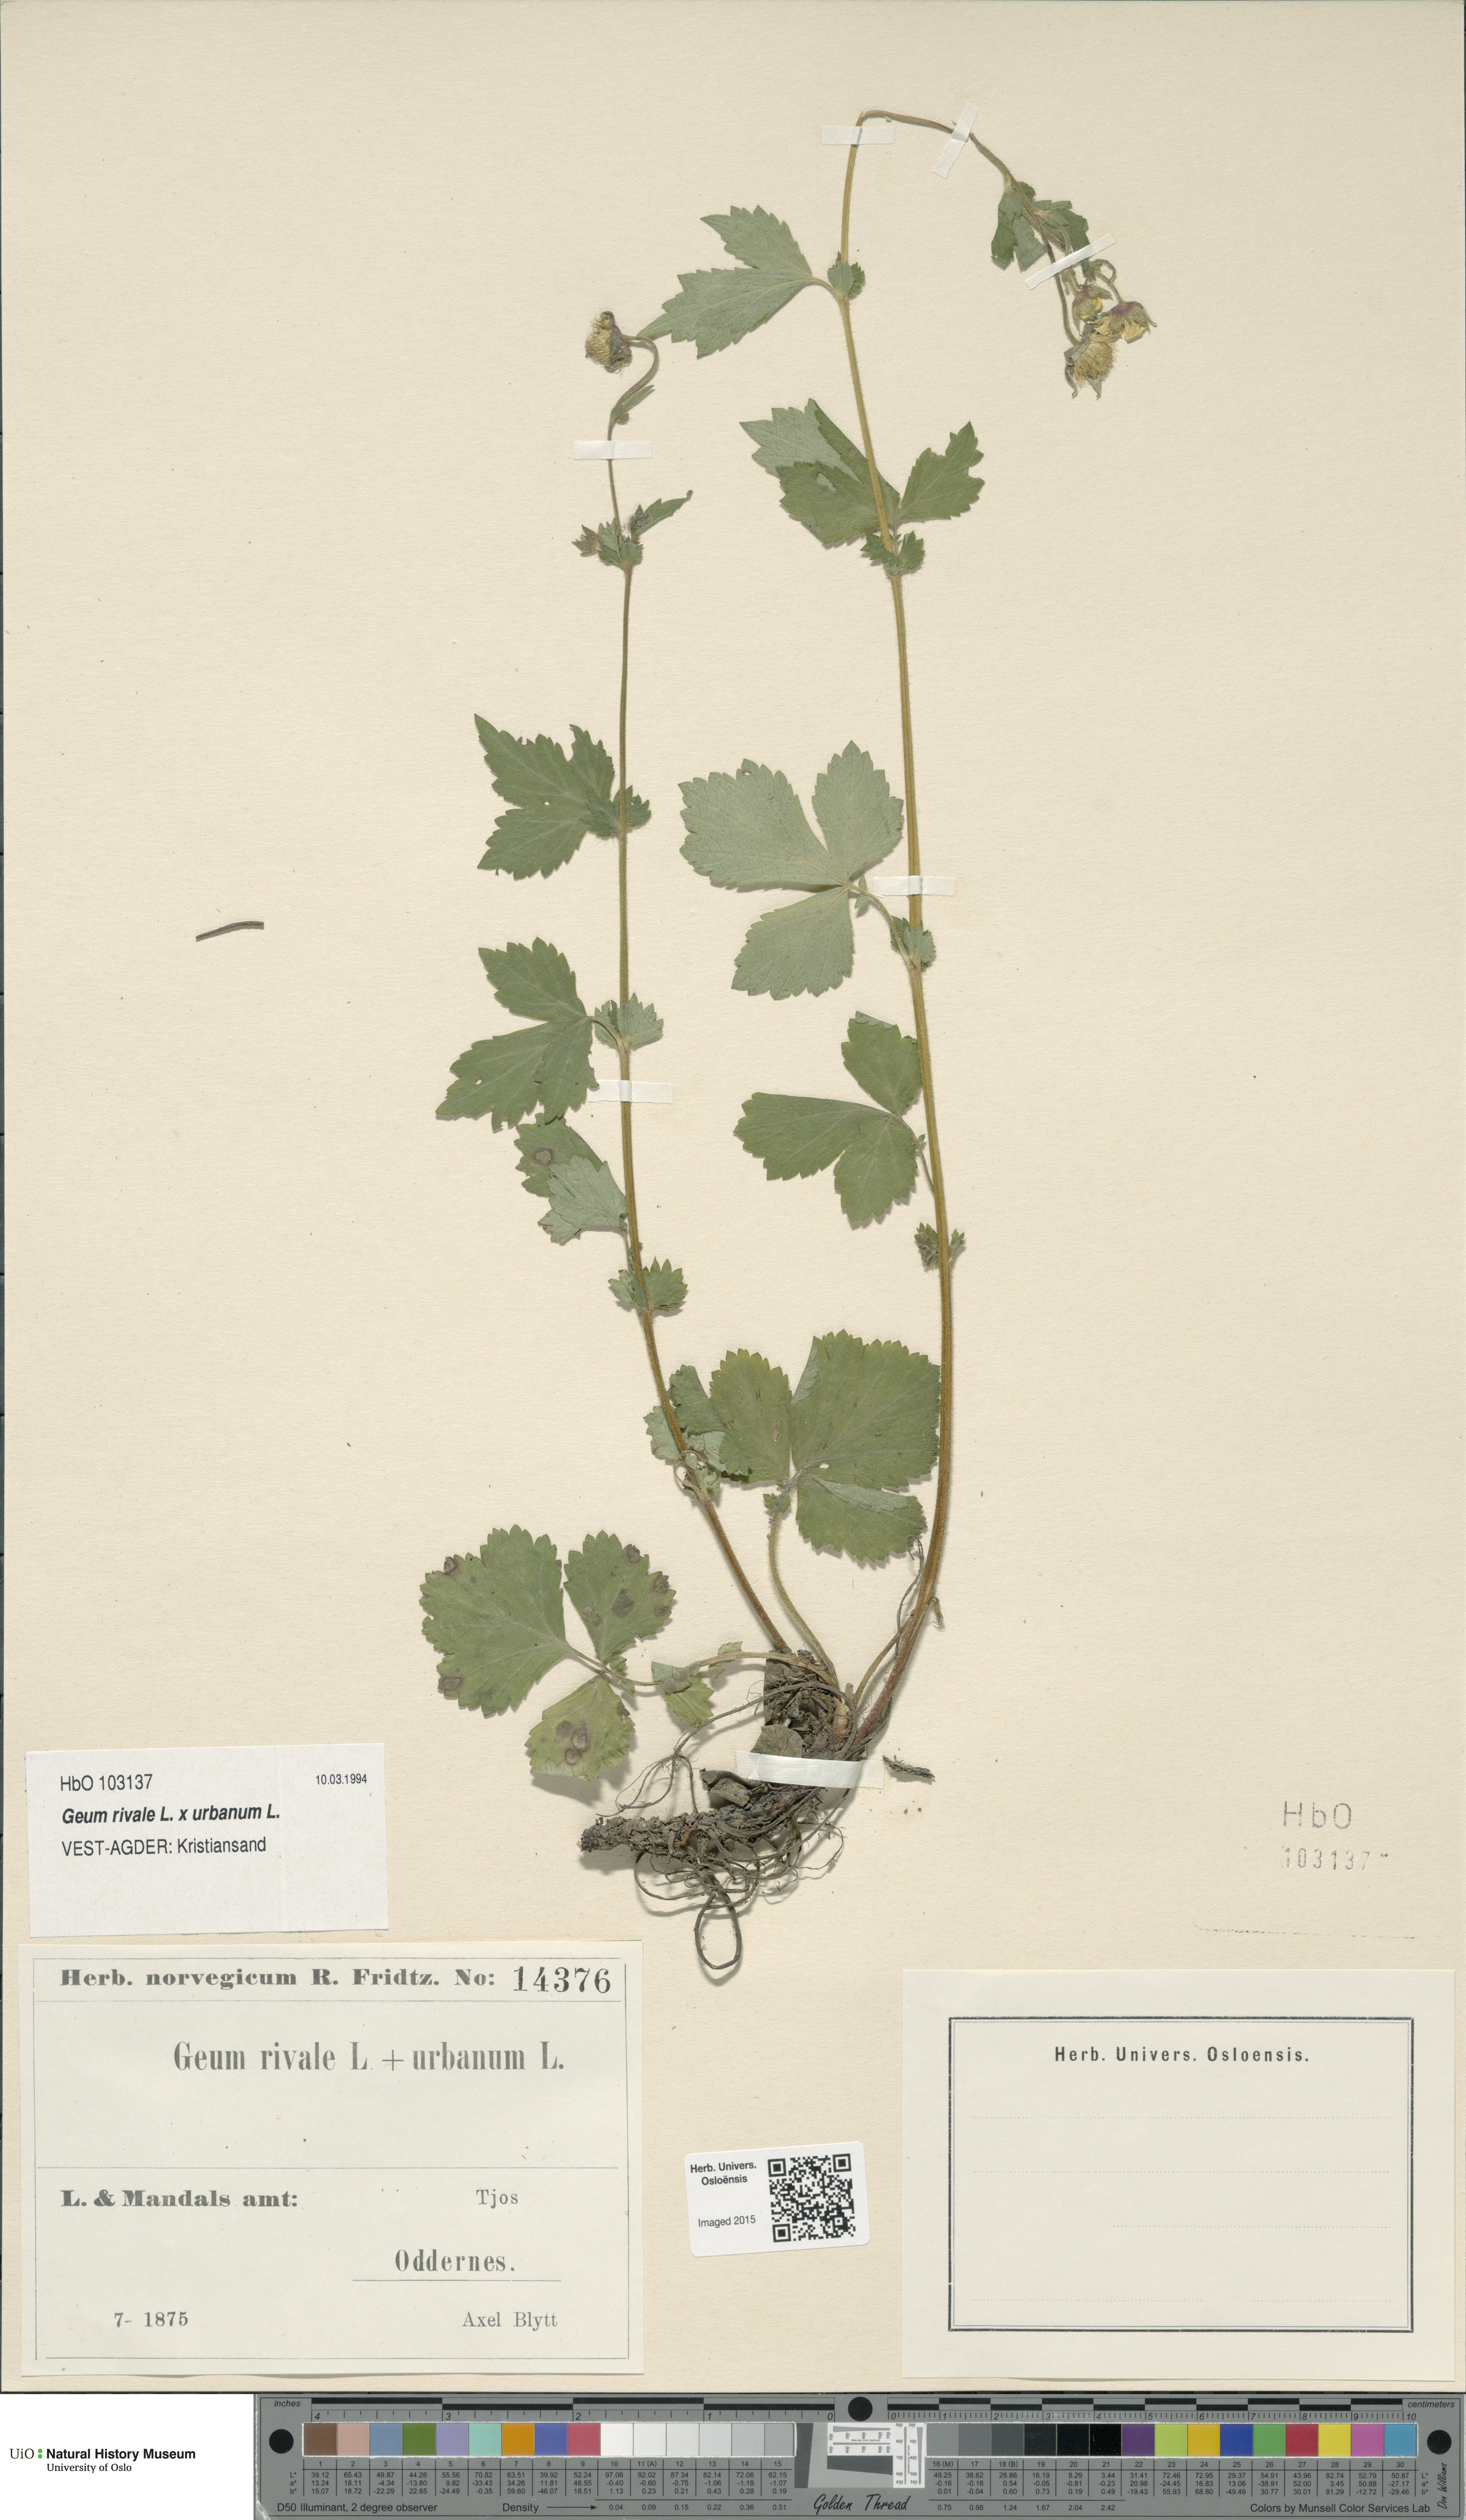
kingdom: Plantae
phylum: Tracheophyta
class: Magnoliopsida
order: Rosales
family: Rosaceae
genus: Geum
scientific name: Geum
